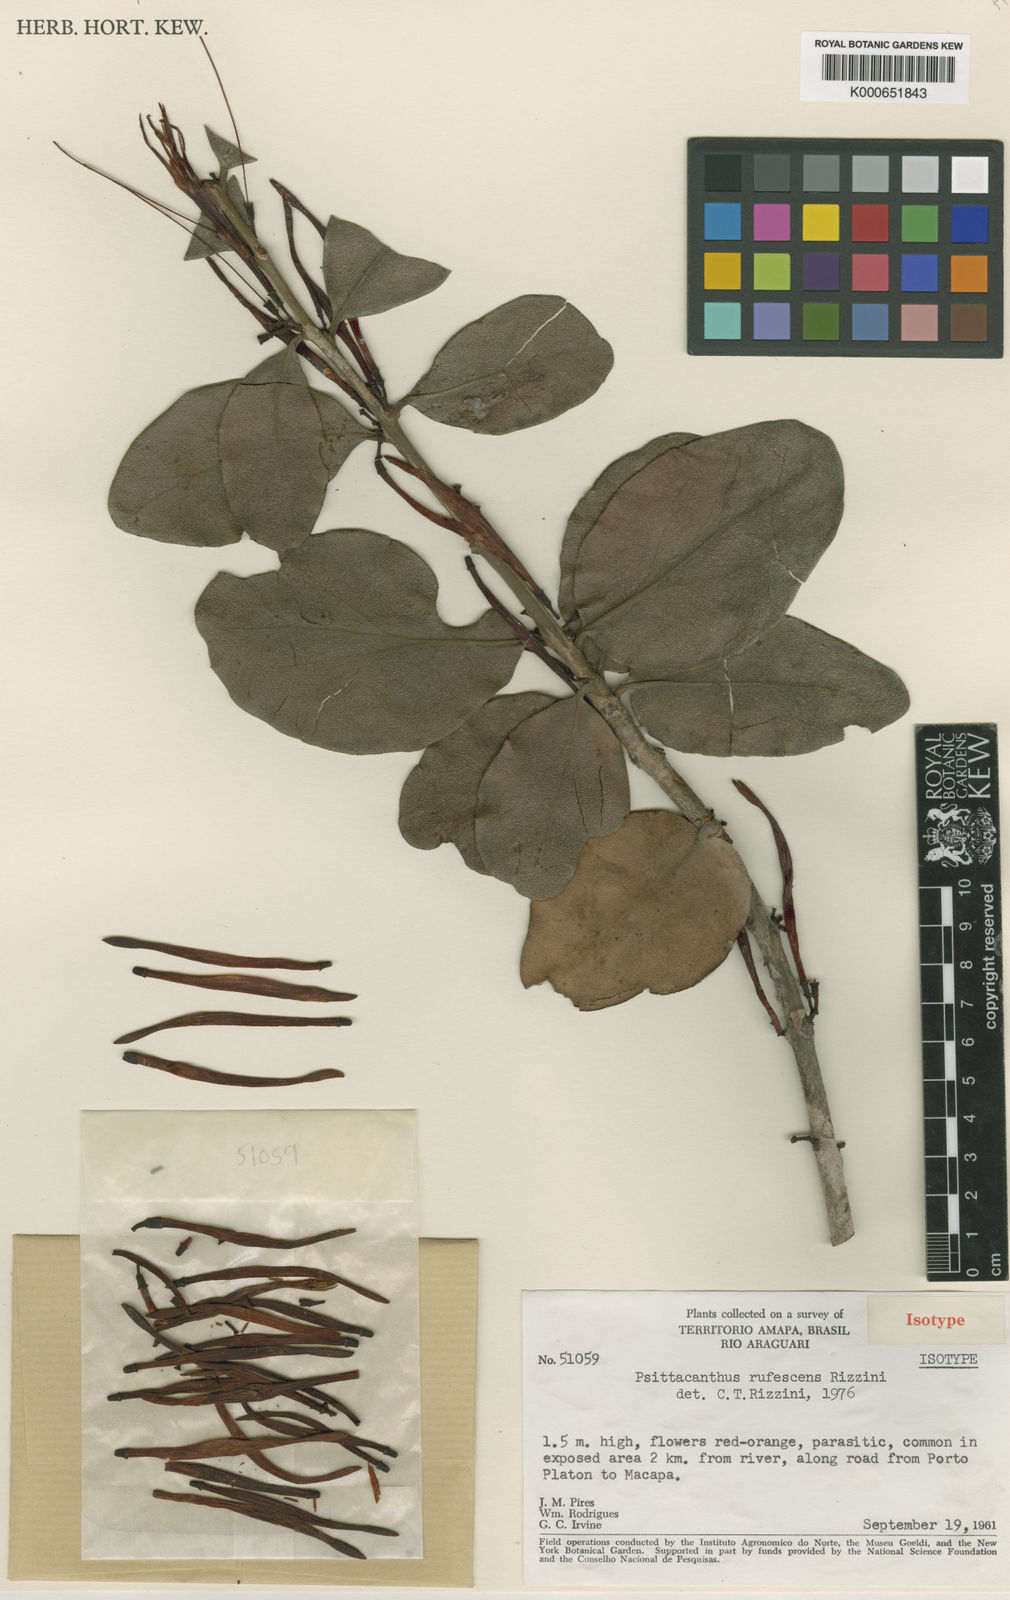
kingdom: Plantae
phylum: Tracheophyta
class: Magnoliopsida
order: Santalales
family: Loranthaceae
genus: Psittacanthus
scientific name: Psittacanthus redactus
